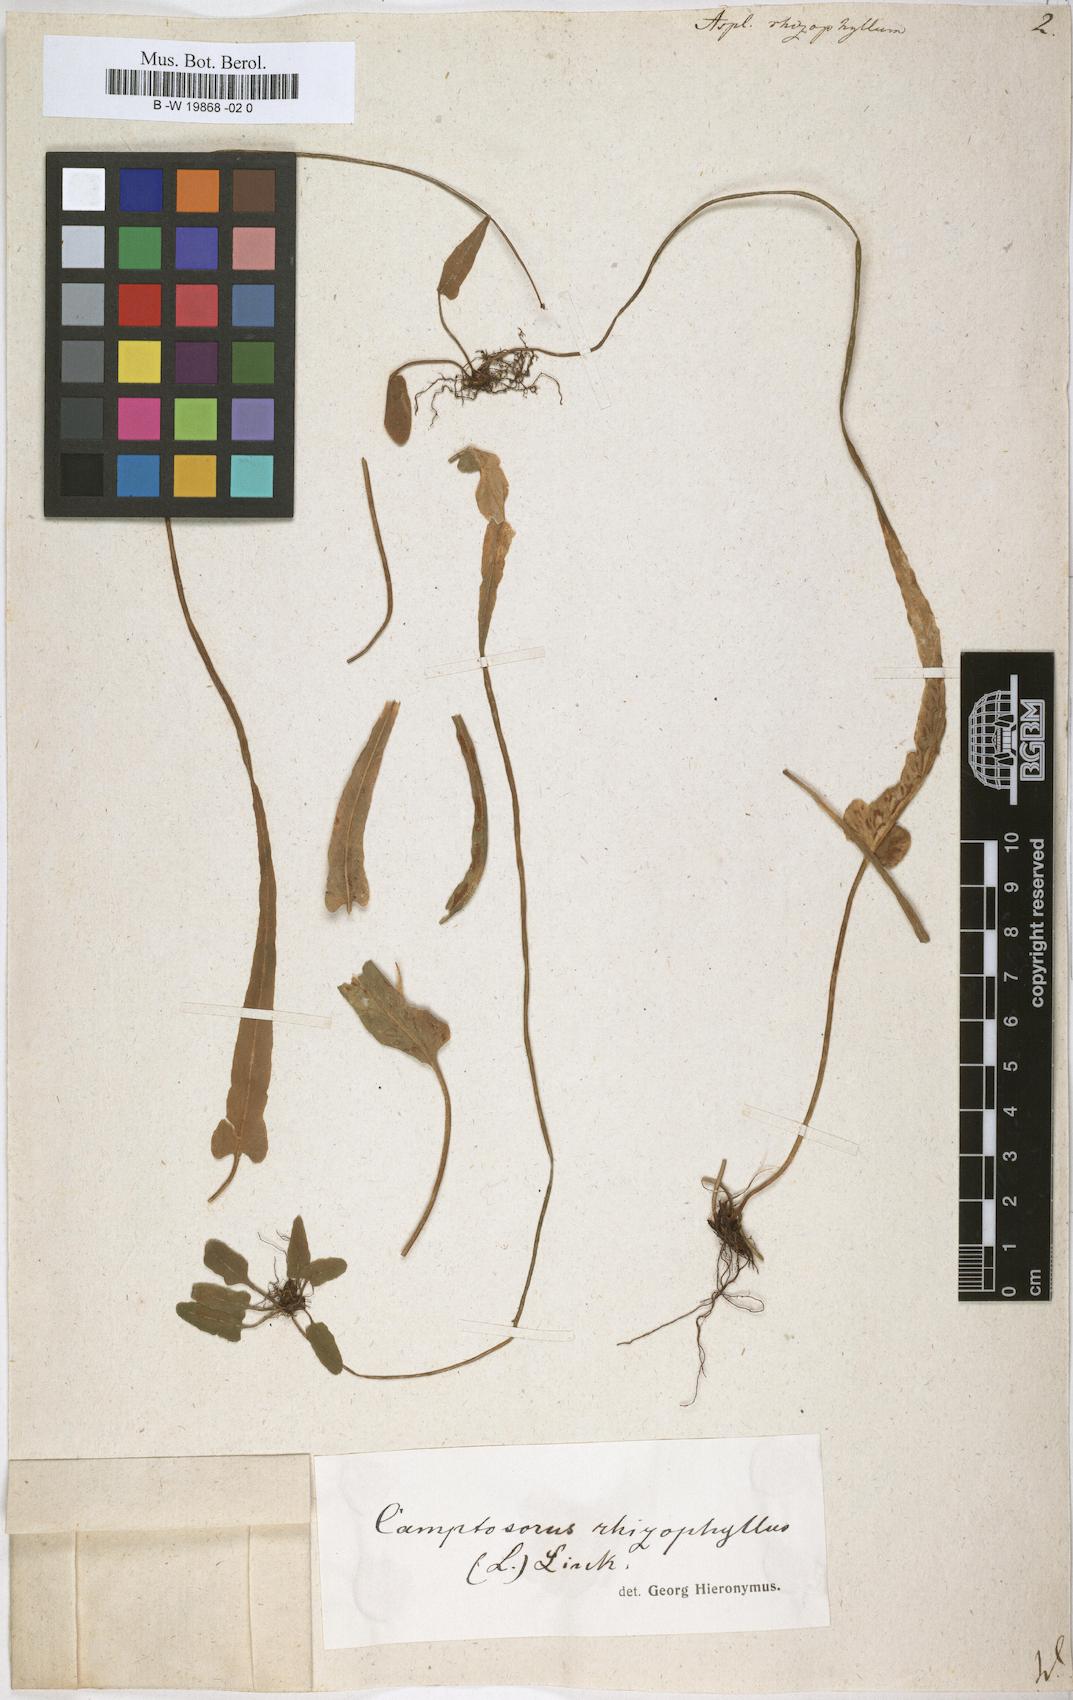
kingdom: Plantae
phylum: Tracheophyta
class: Polypodiopsida
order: Polypodiales
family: Aspleniaceae
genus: Asplenium
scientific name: Asplenium rhizophyllum
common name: Walking fern
